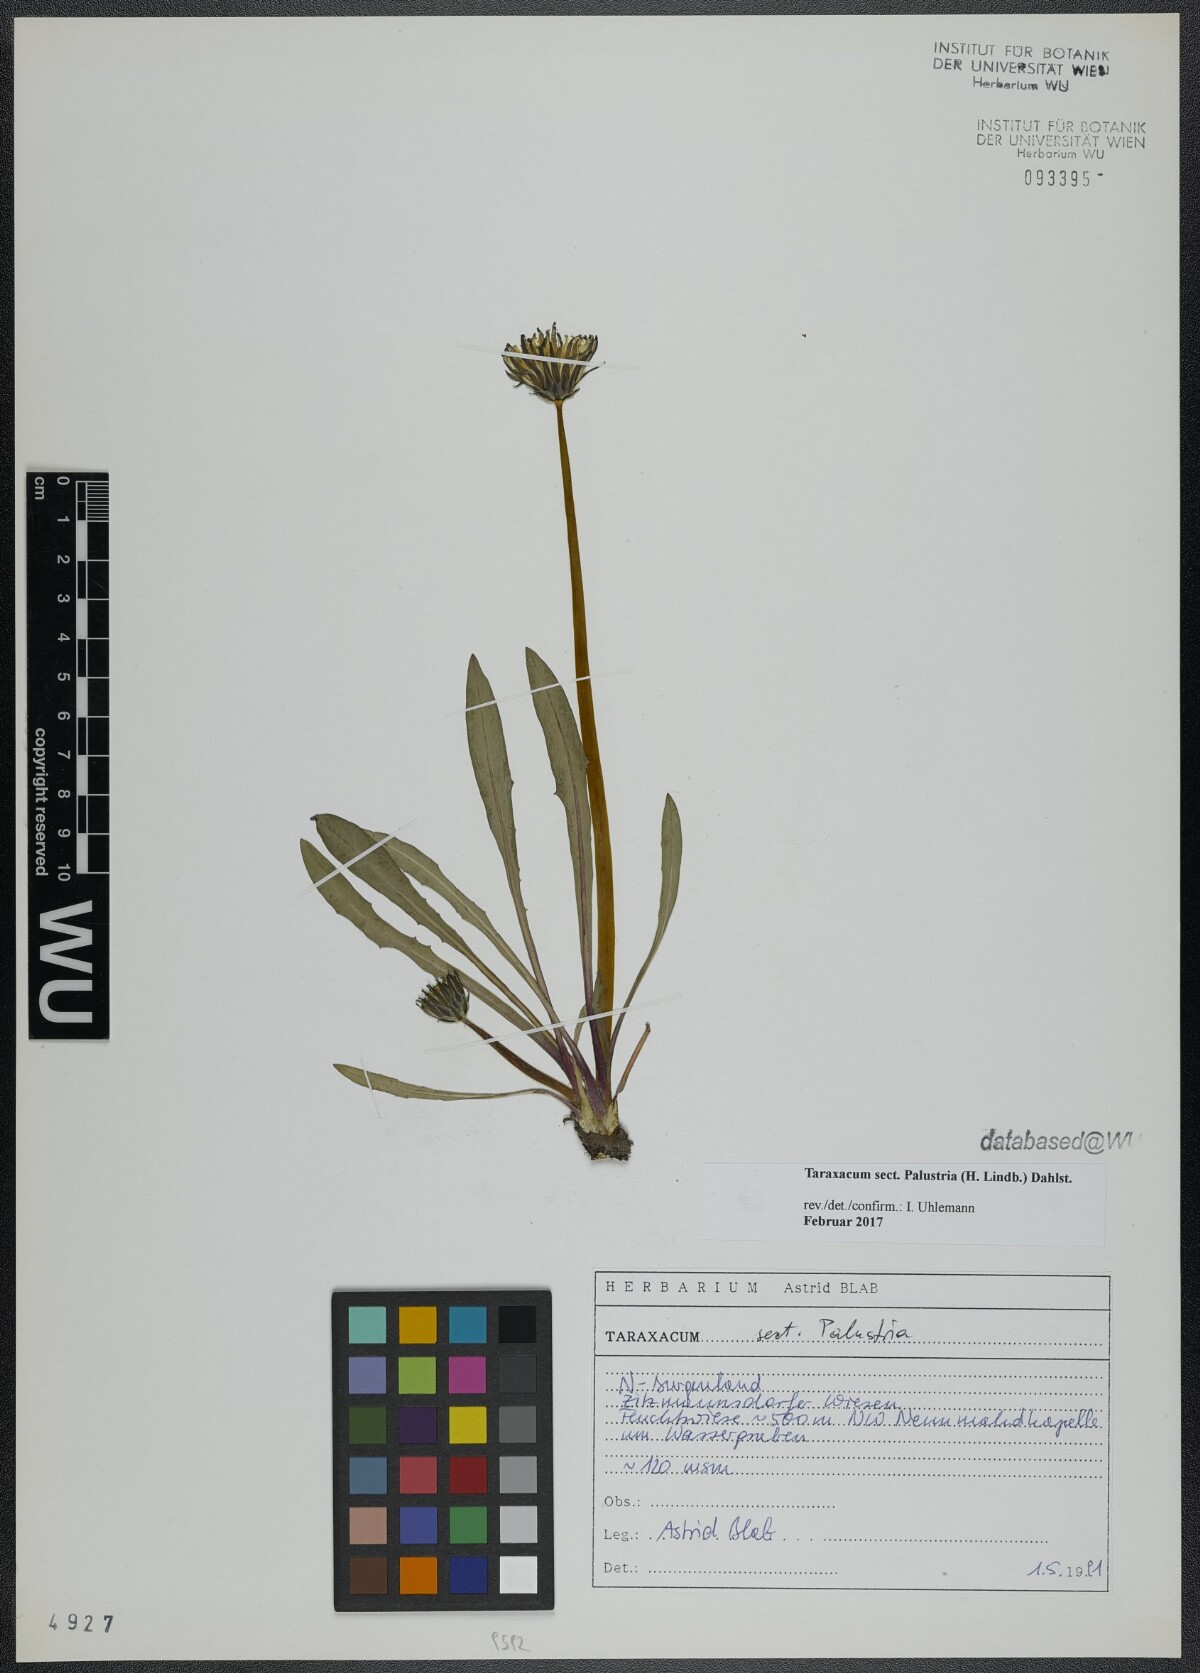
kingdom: Plantae
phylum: Tracheophyta
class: Magnoliopsida
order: Asterales
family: Asteraceae
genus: Taraxacum
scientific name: Taraxacum
